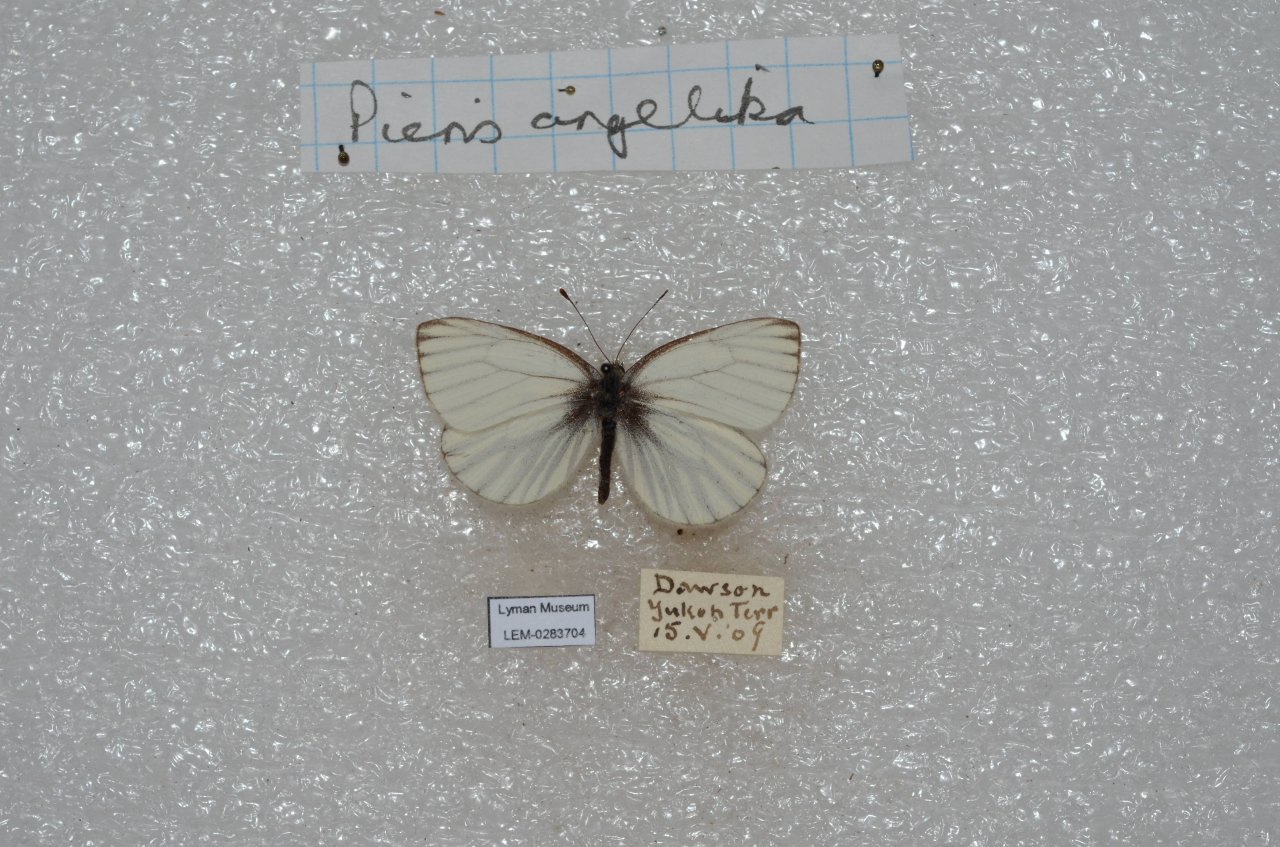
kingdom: Animalia
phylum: Arthropoda
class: Insecta
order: Lepidoptera
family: Pieridae
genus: Pieris
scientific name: Pieris angelika
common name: Arctic White
